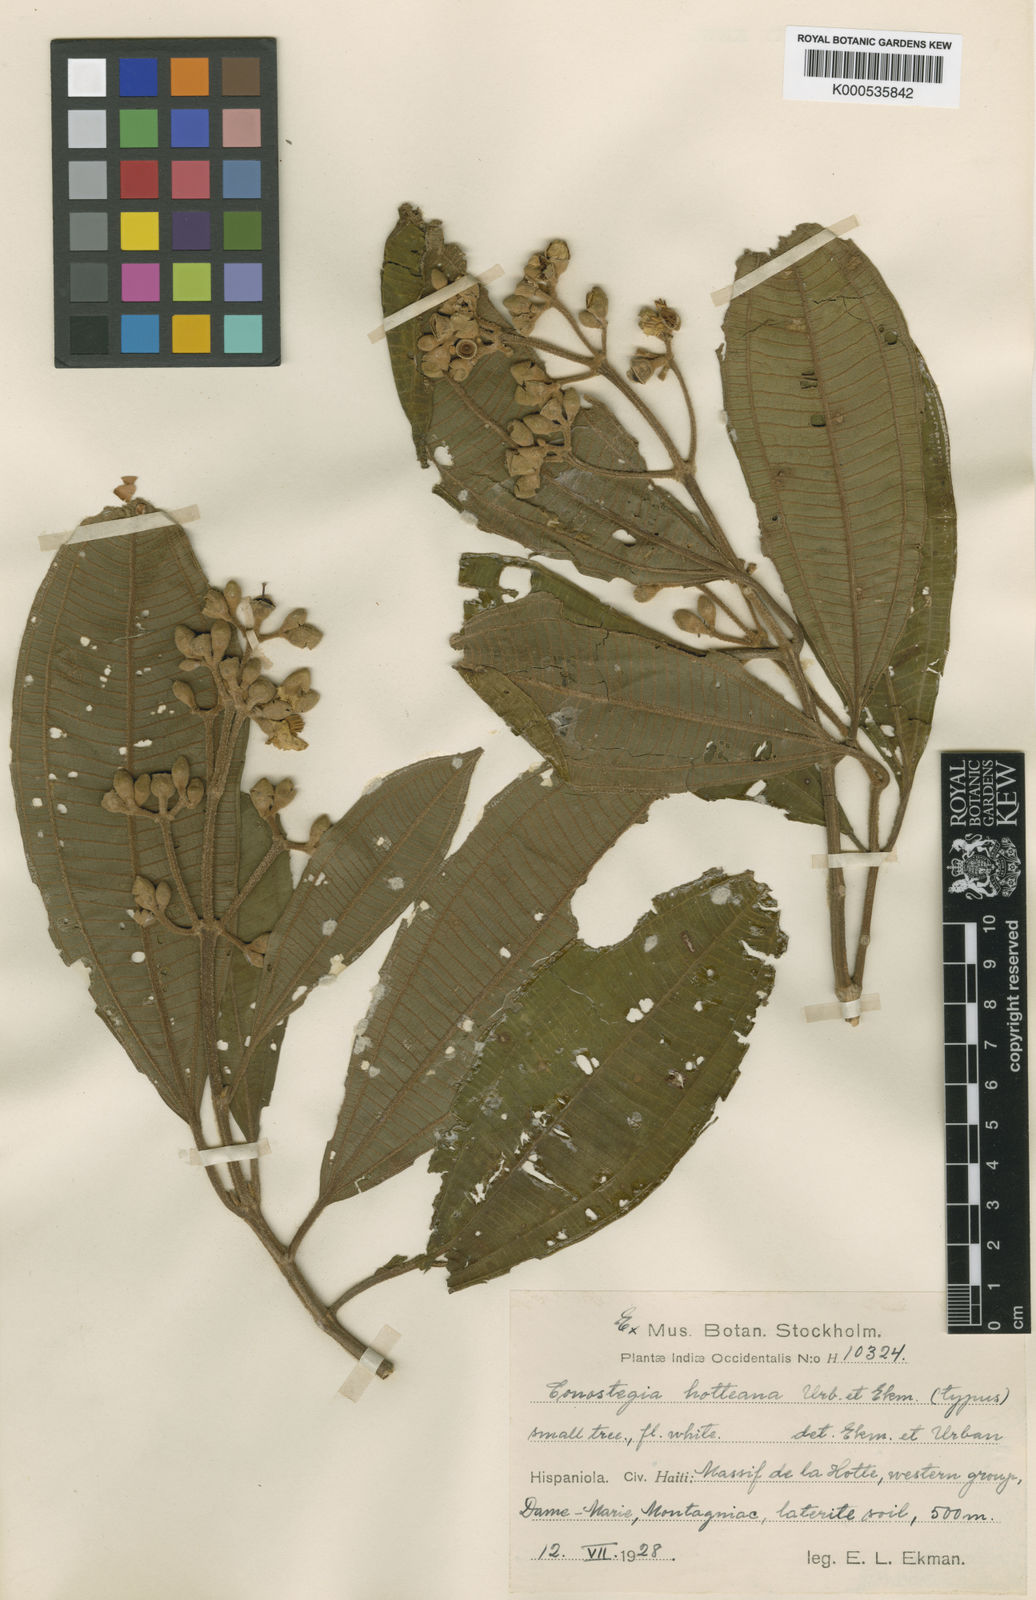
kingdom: Plantae
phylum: Tracheophyta
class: Magnoliopsida
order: Myrtales
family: Melastomataceae
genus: Miconia
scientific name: Miconia conorufescens
